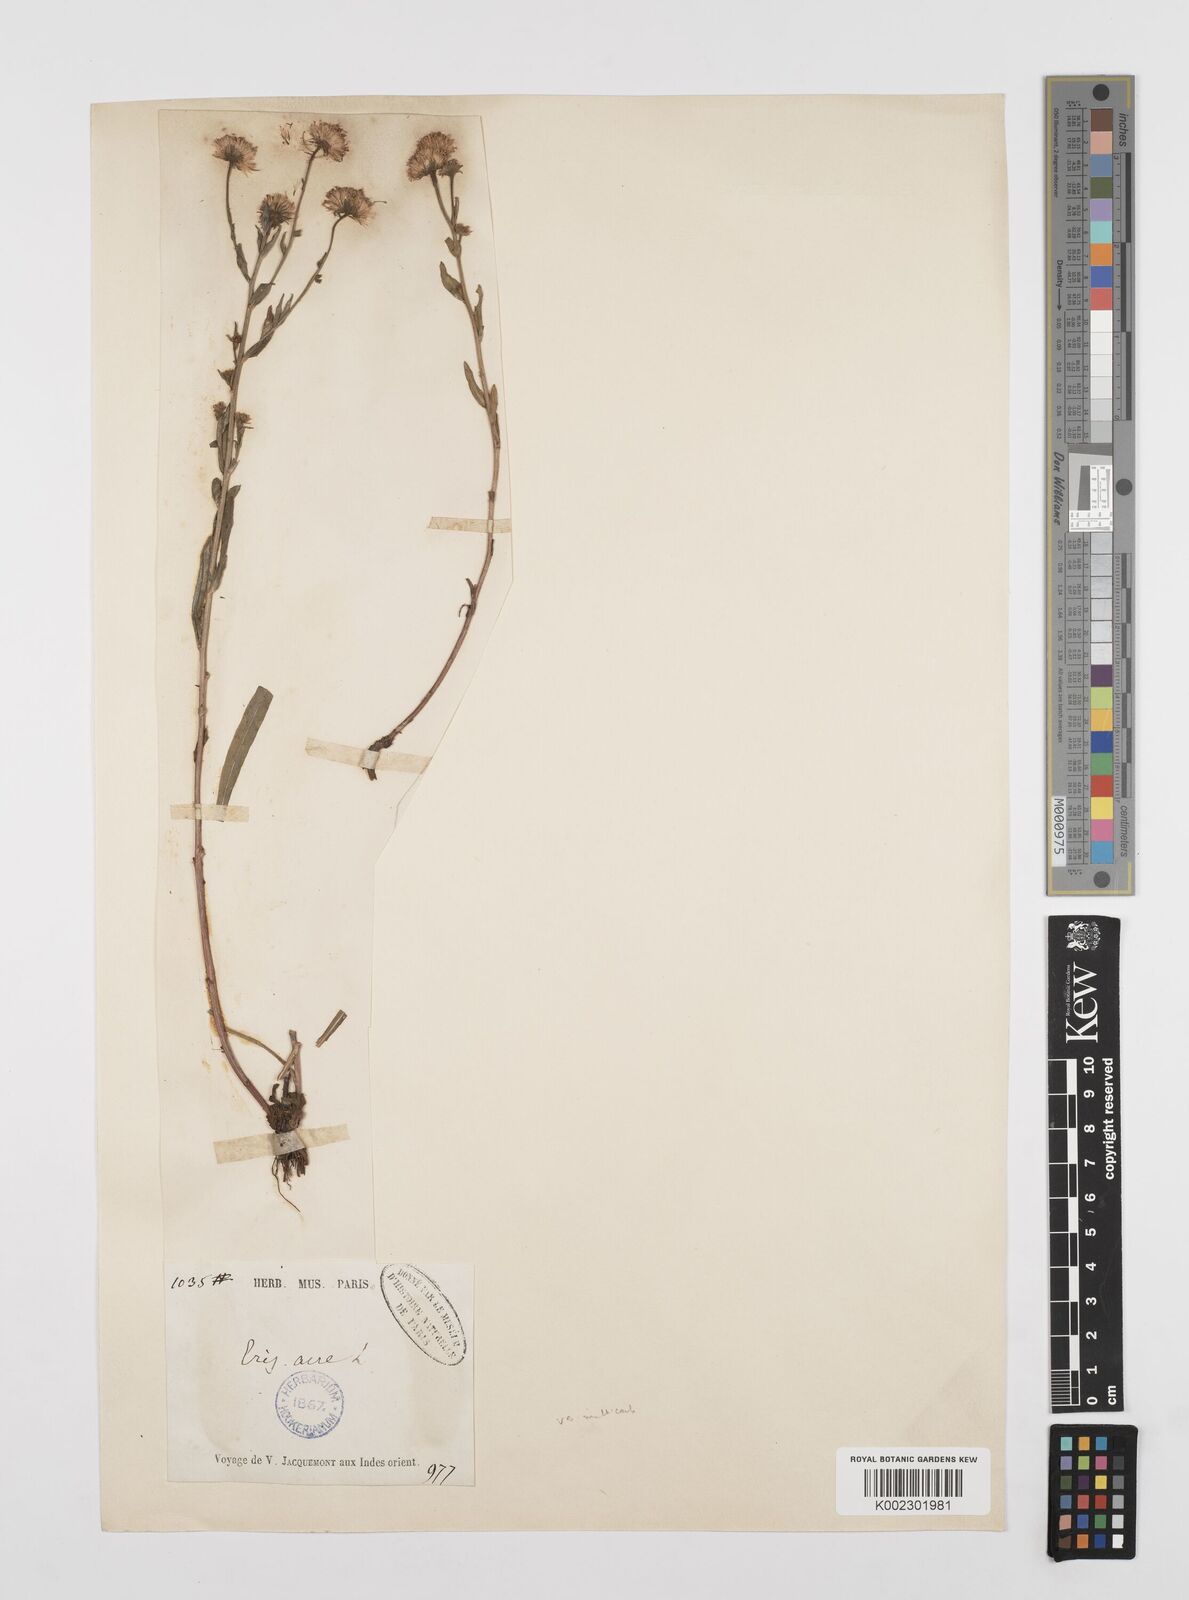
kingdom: Plantae
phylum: Tracheophyta
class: Magnoliopsida
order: Asterales
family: Asteraceae
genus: Erigeron
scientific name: Erigeron alpinus
